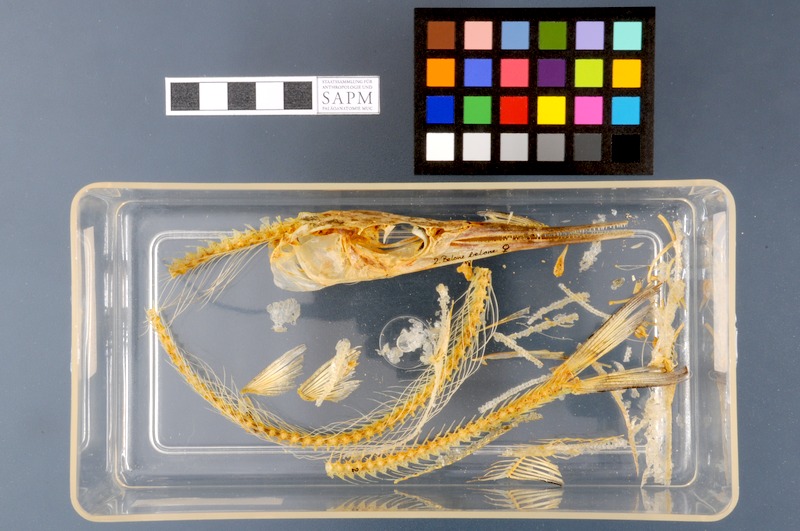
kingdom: Animalia
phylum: Chordata
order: Beloniformes
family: Belonidae
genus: Belone
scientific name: Belone belone
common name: Garfish
